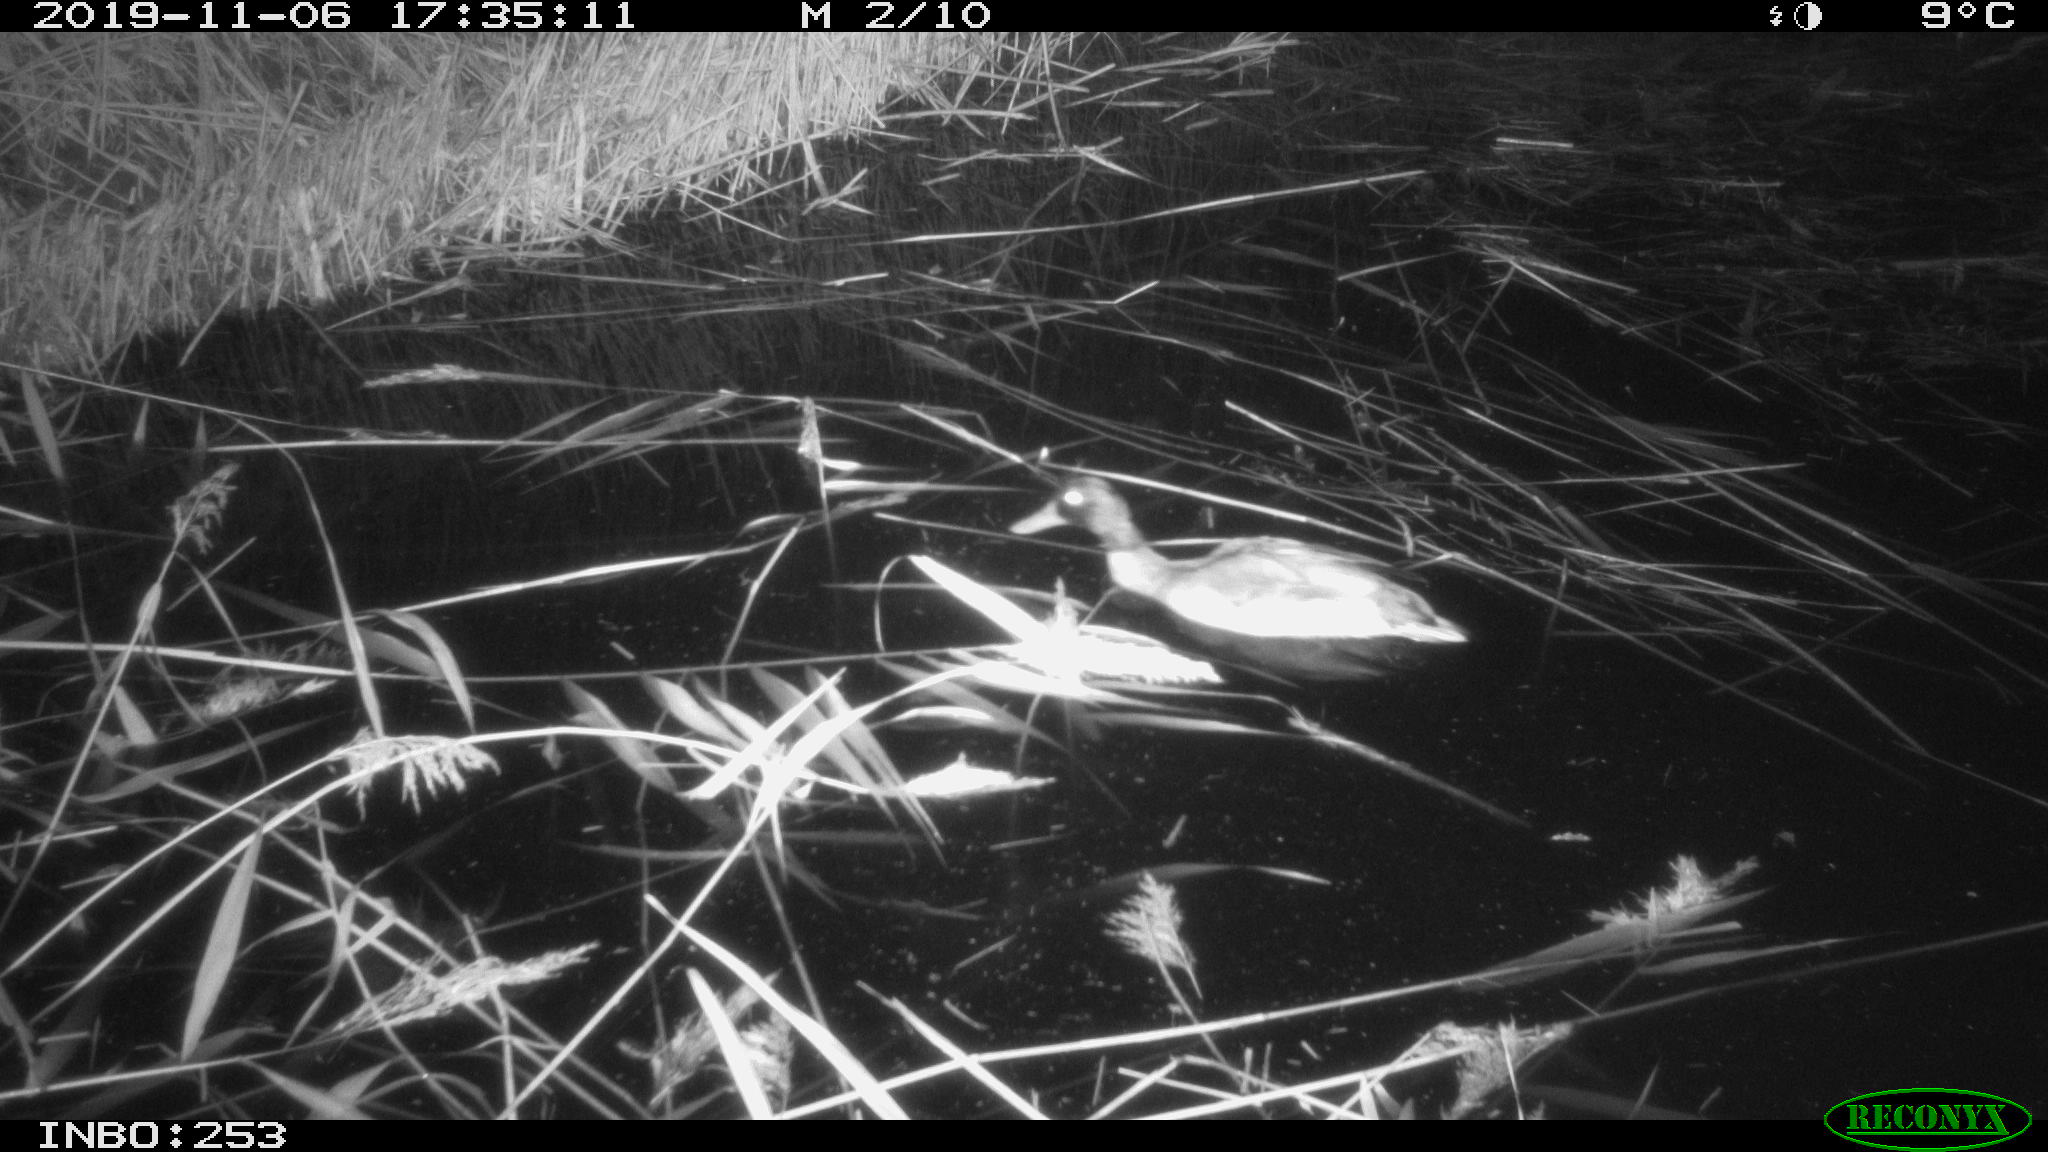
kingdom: Animalia
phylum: Chordata
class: Aves
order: Anseriformes
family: Anatidae
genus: Anas
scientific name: Anas platyrhynchos
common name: Mallard
